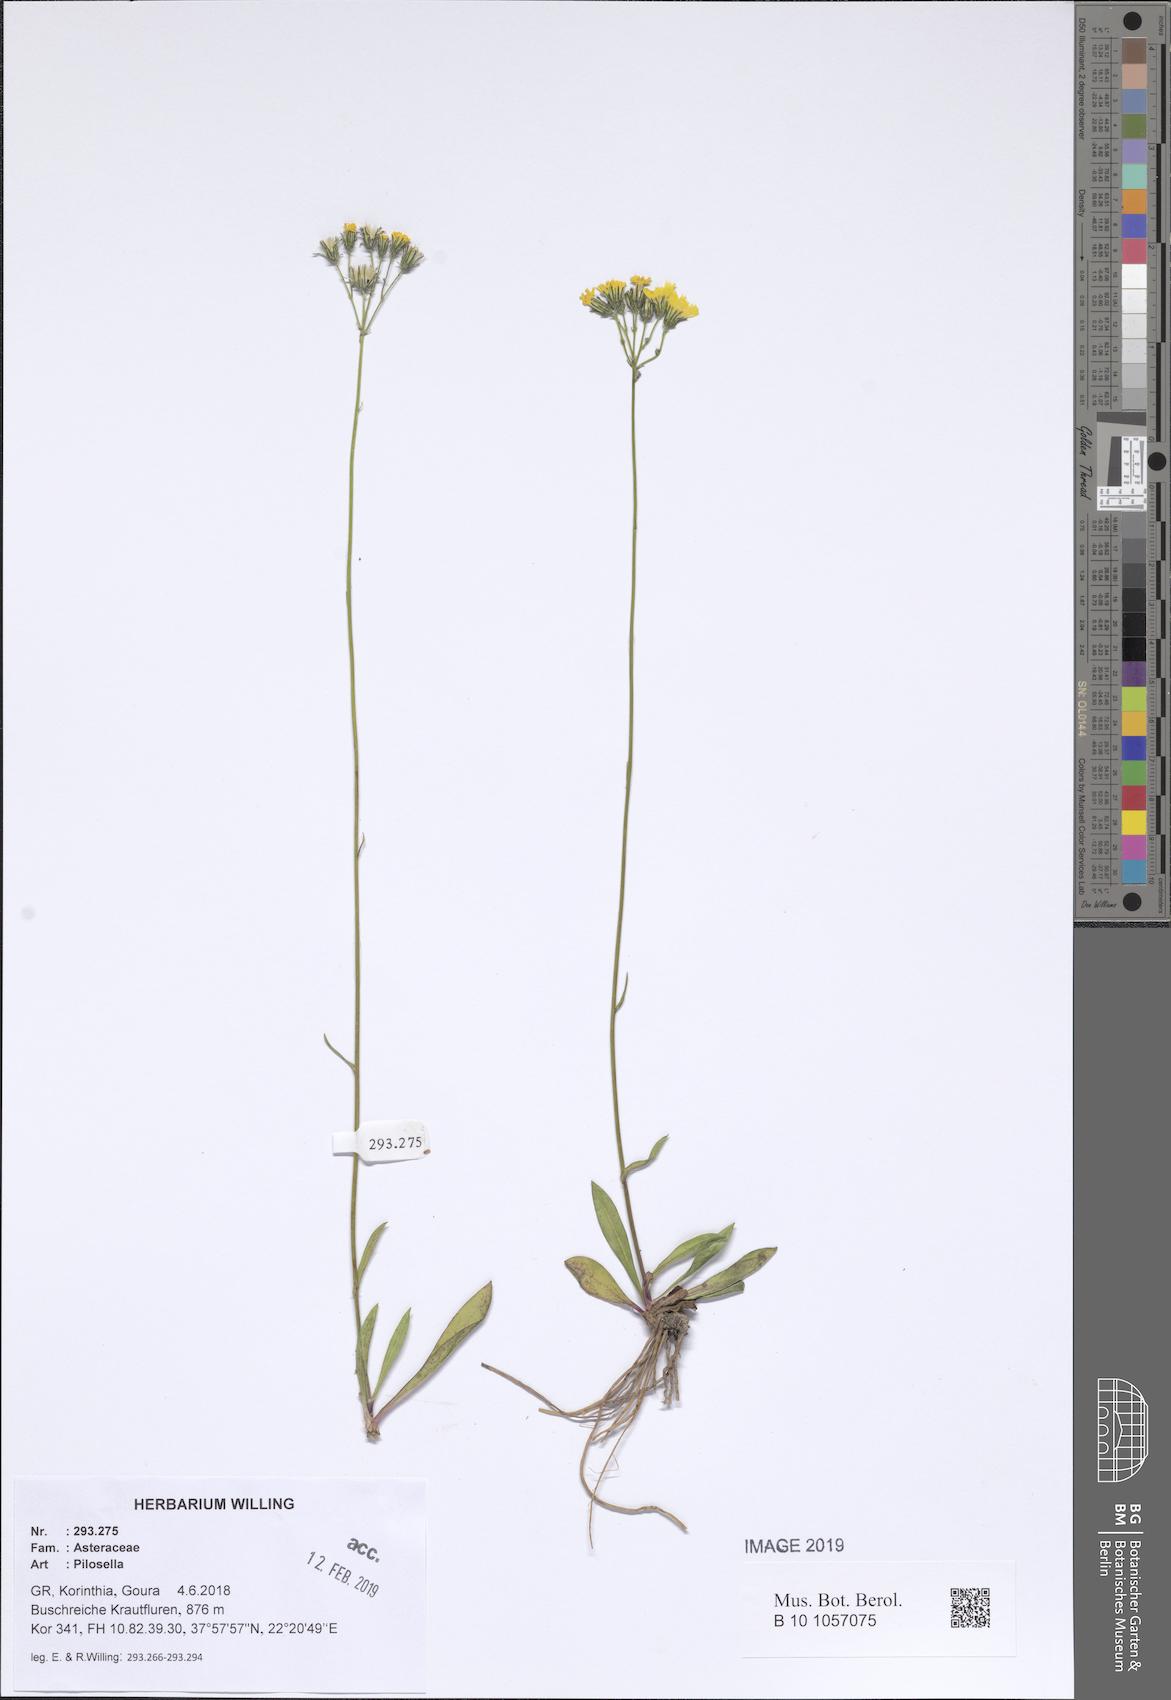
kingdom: Plantae
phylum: Tracheophyta
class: Magnoliopsida
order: Asterales
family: Asteraceae
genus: Pilosella
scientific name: Pilosella
